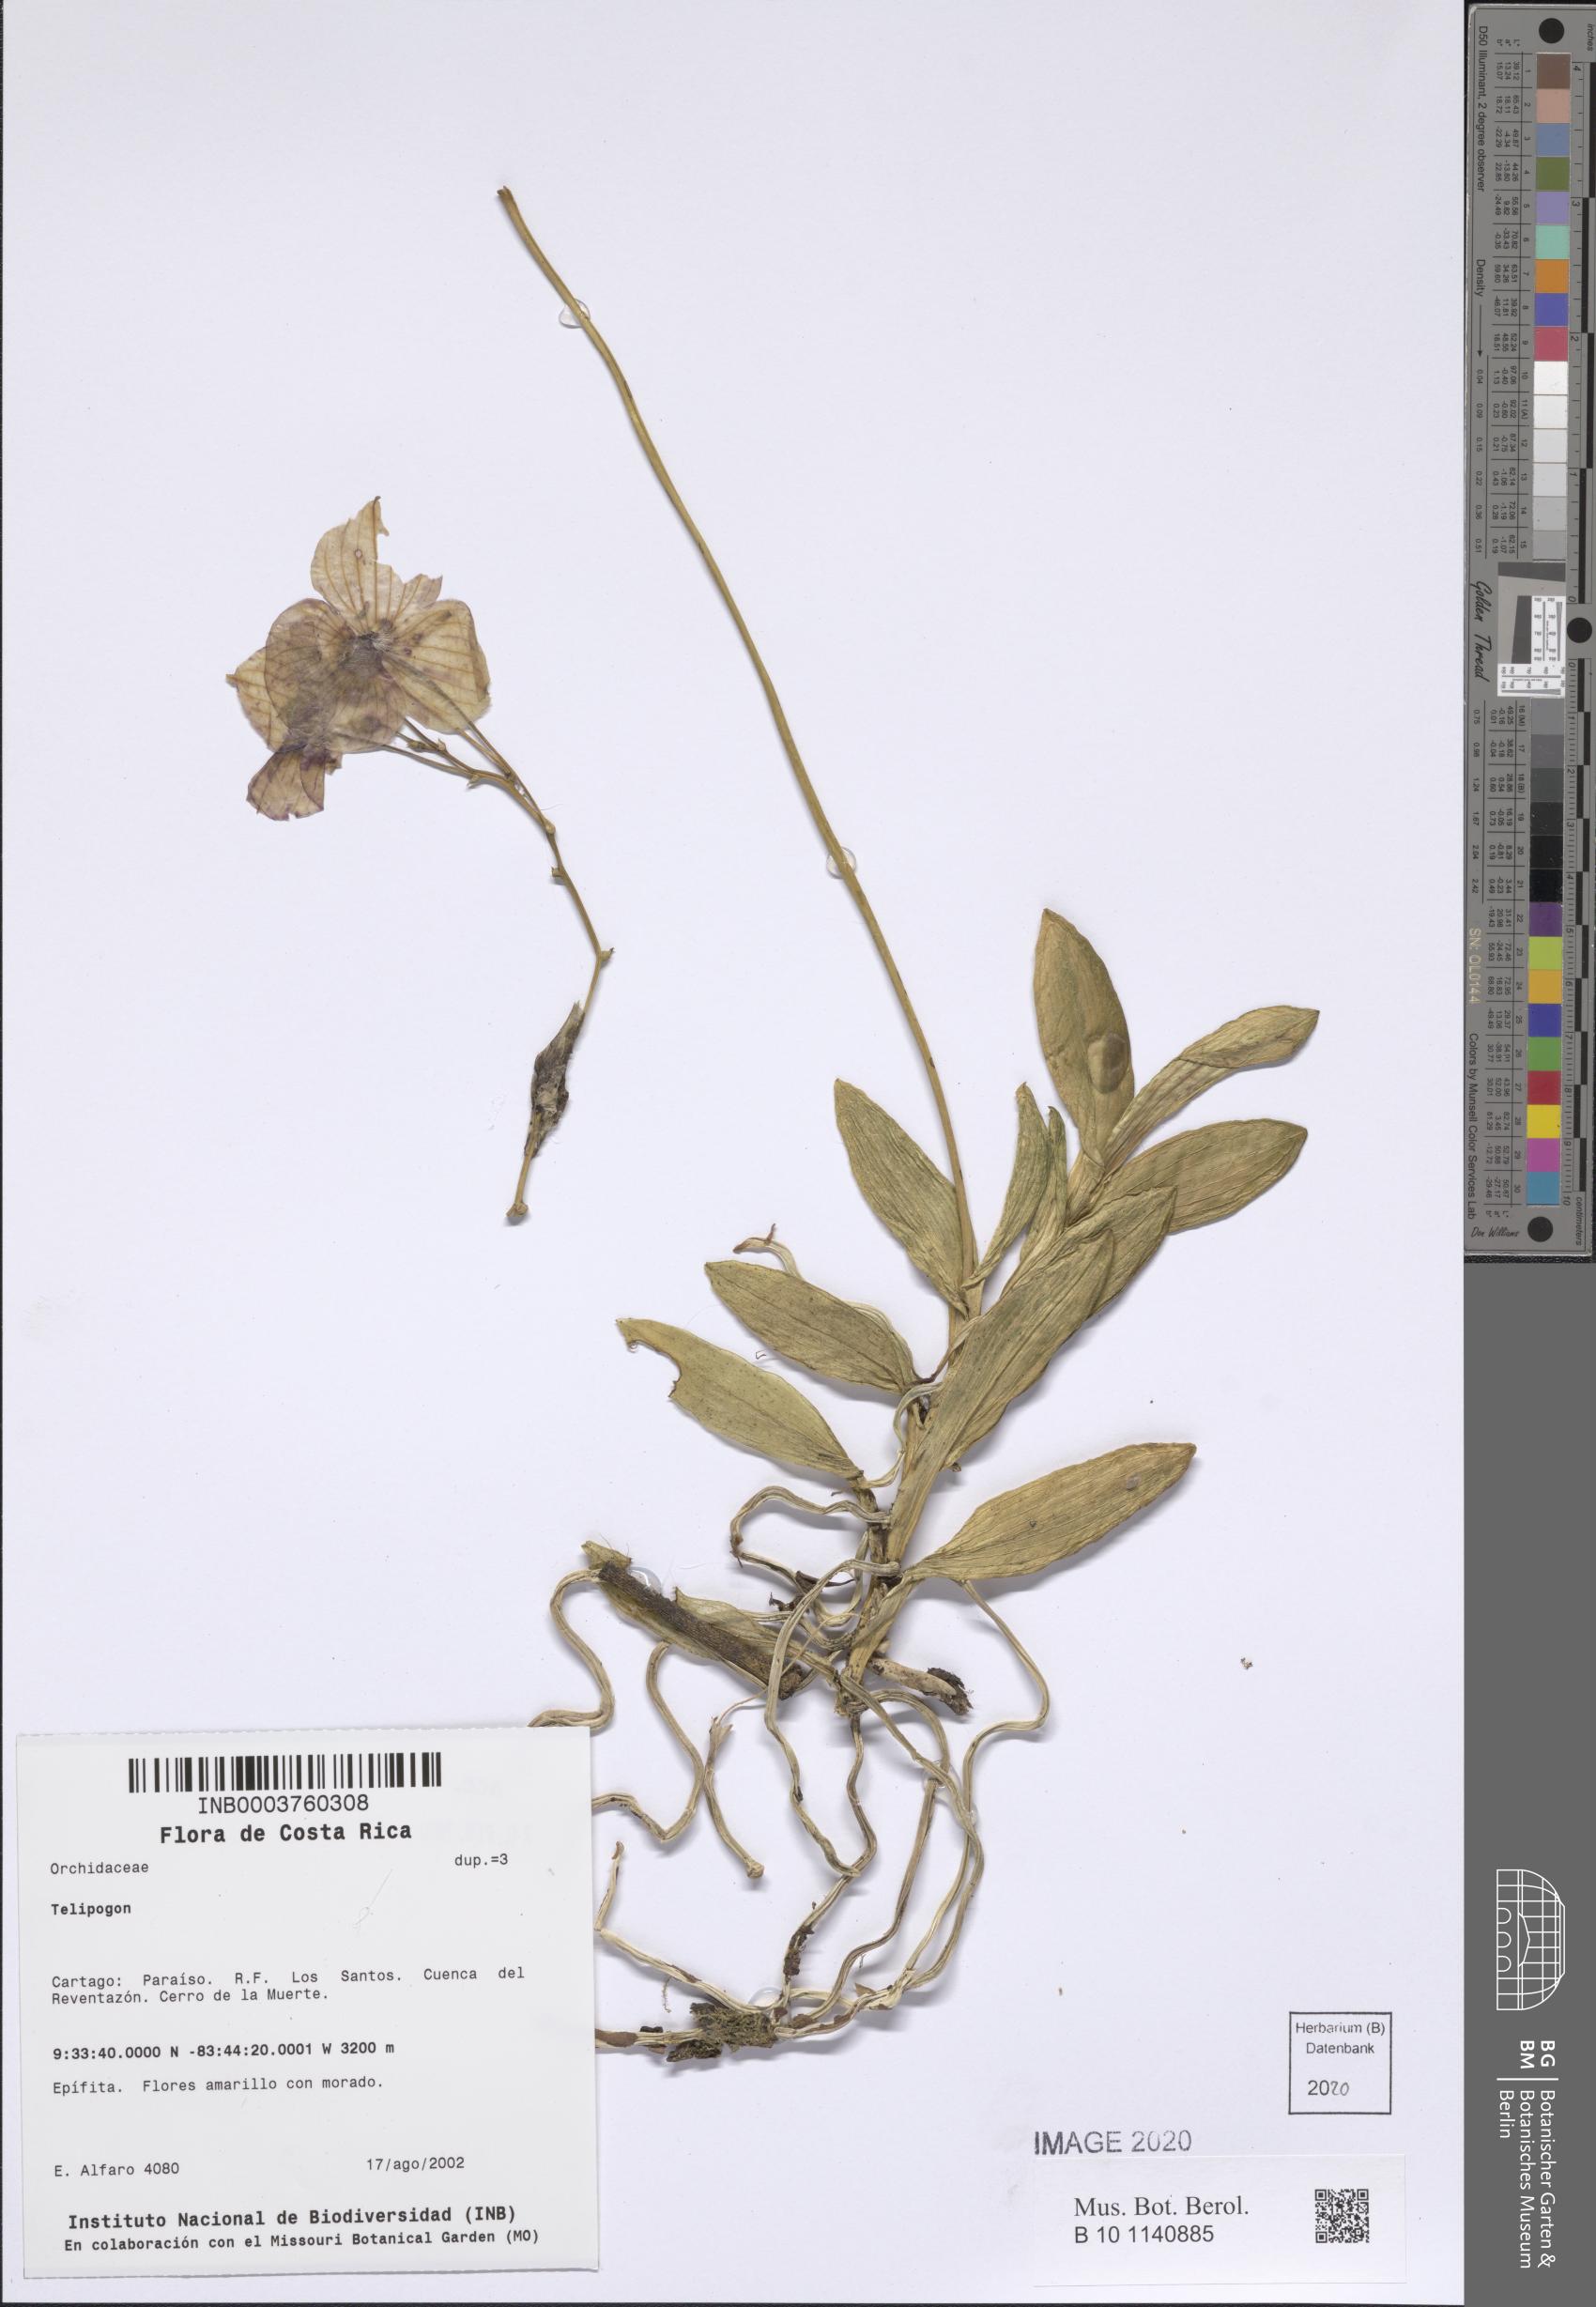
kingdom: Plantae
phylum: Tracheophyta
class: Liliopsida
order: Asparagales
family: Orchidaceae
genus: Telipogon
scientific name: Telipogon
